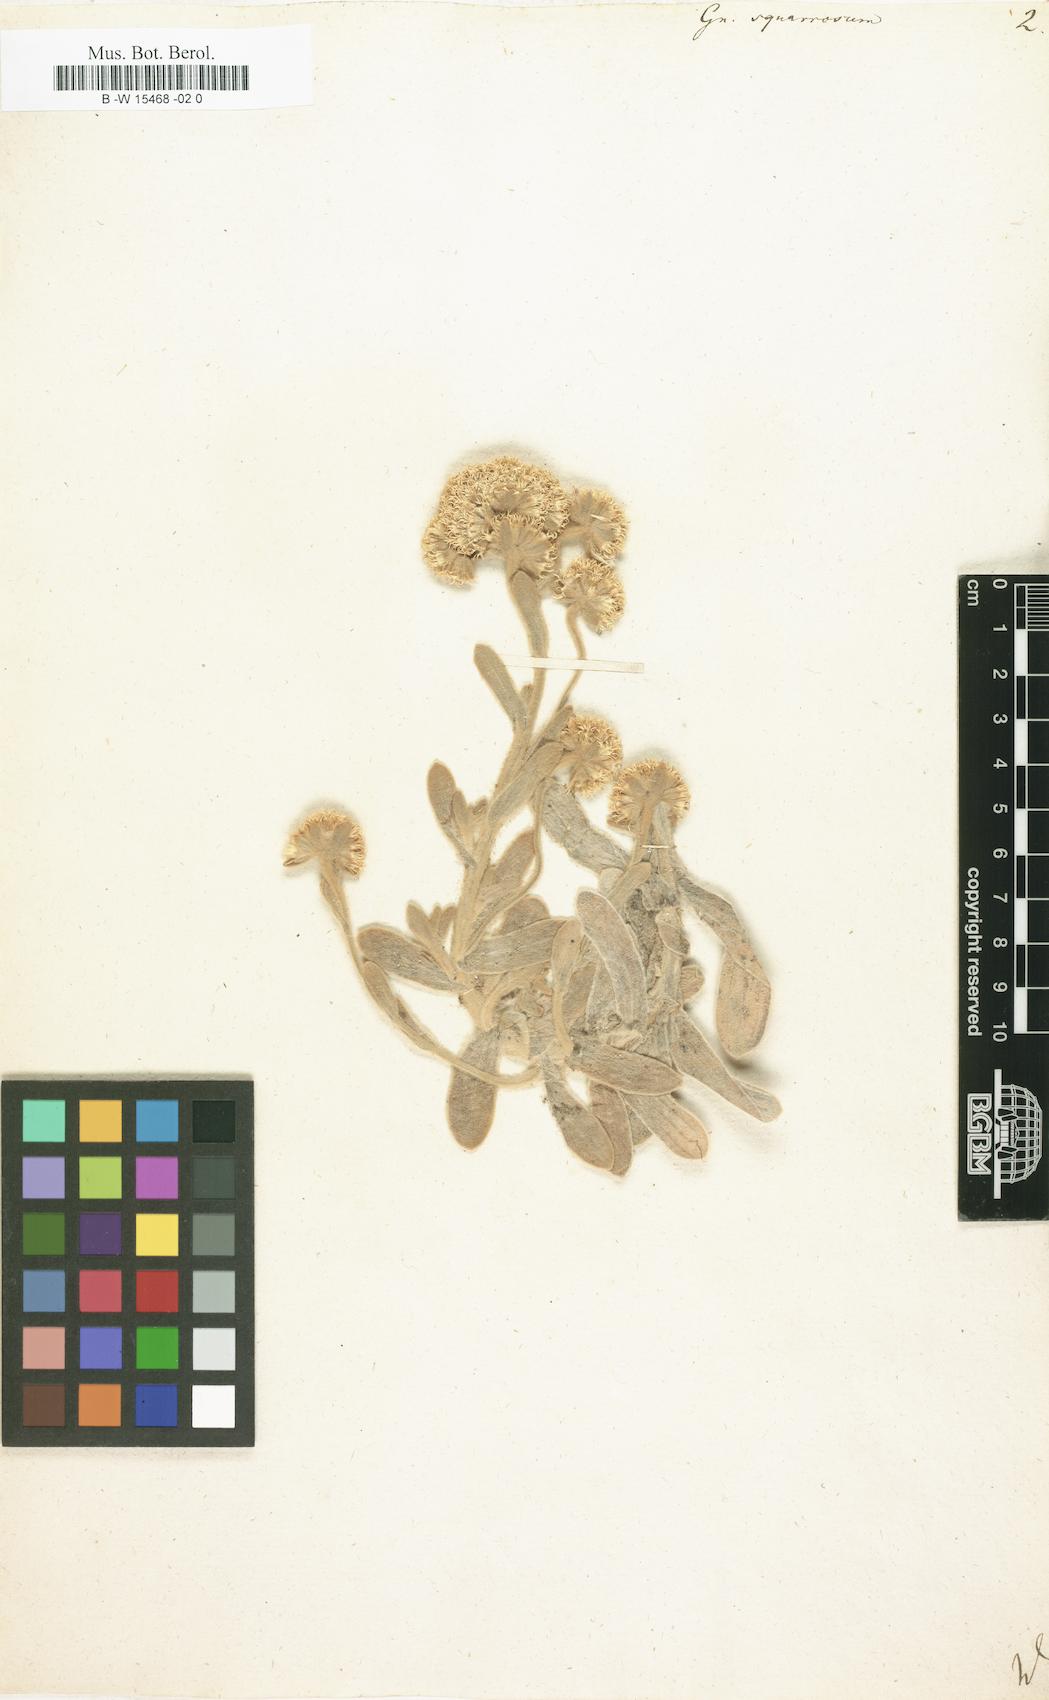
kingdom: Plantae
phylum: Tracheophyta
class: Magnoliopsida
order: Asterales
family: Asteraceae
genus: Helichrysum
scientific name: Helichrysum spiralepis
